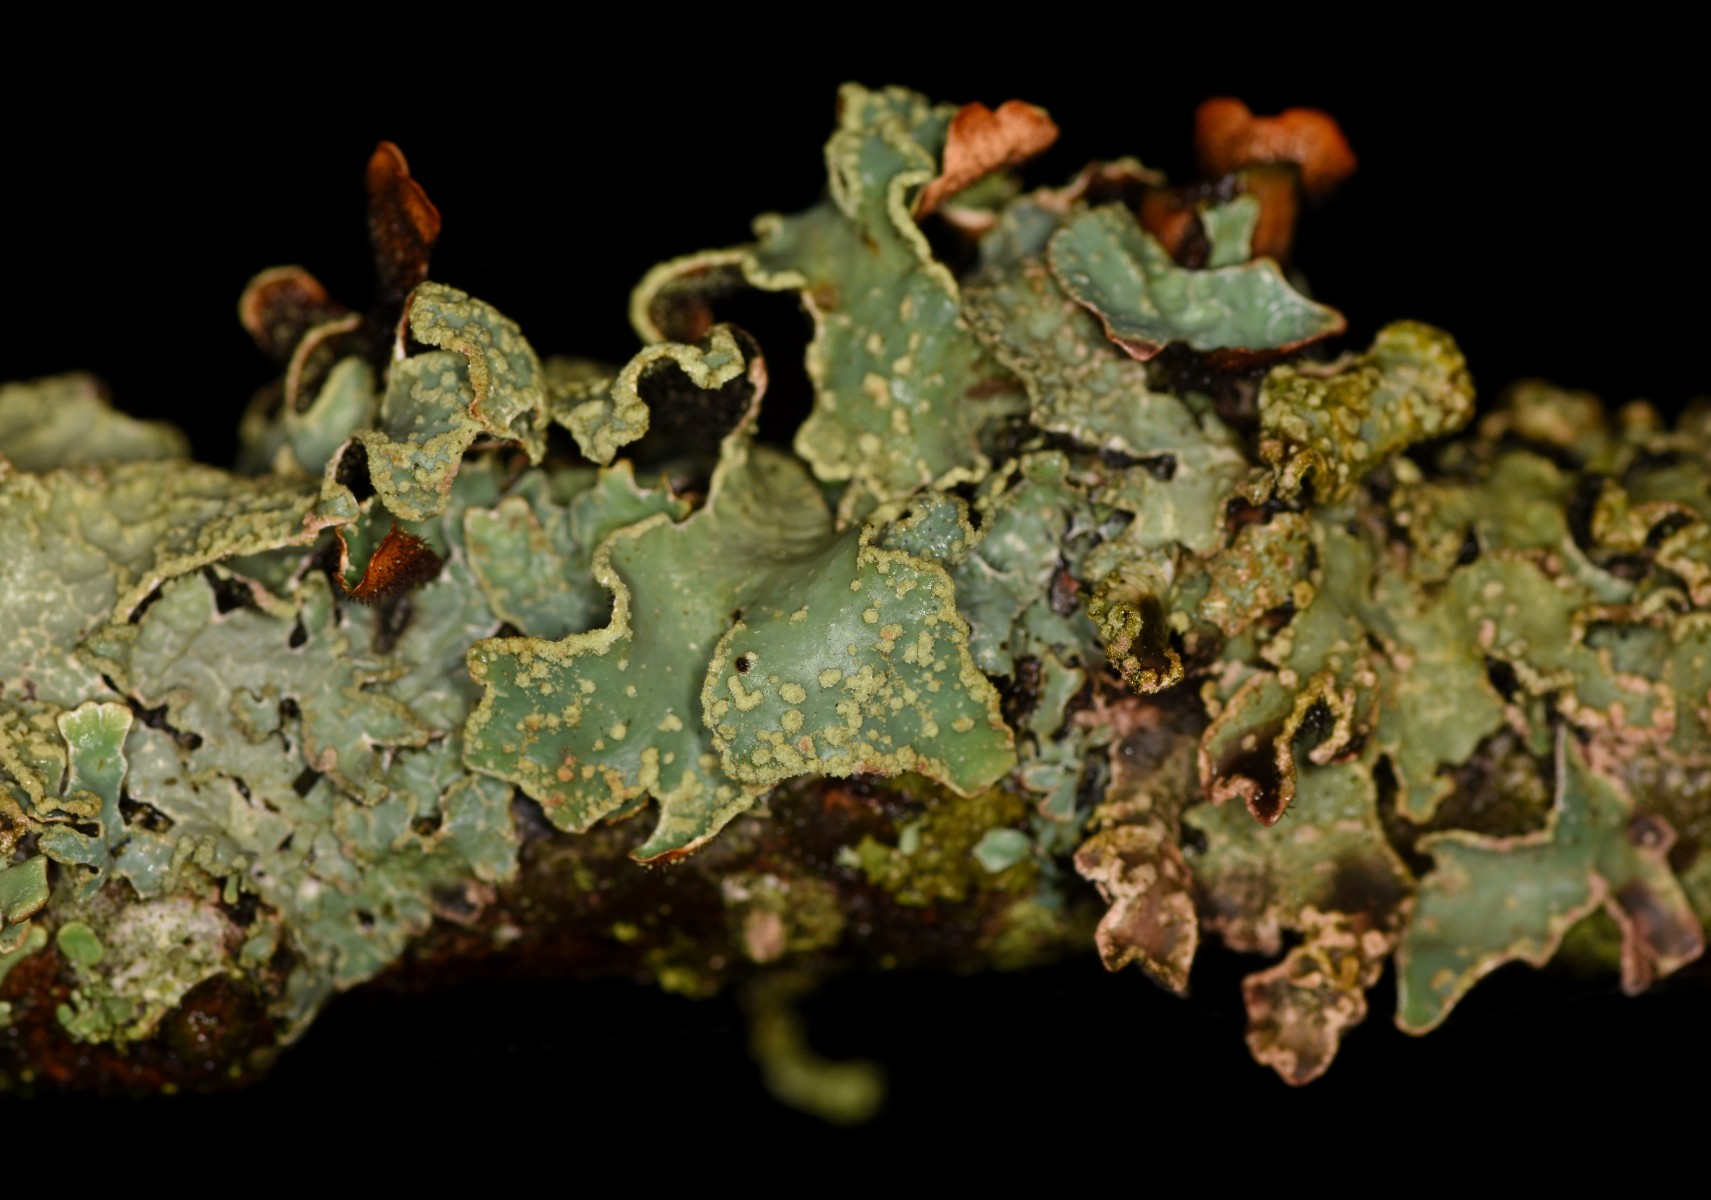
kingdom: Fungi
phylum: Ascomycota
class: Lecanoromycetes
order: Lecanorales
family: Parmeliaceae
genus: Parmelia
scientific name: Parmelia sulcata
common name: rynket skållav
